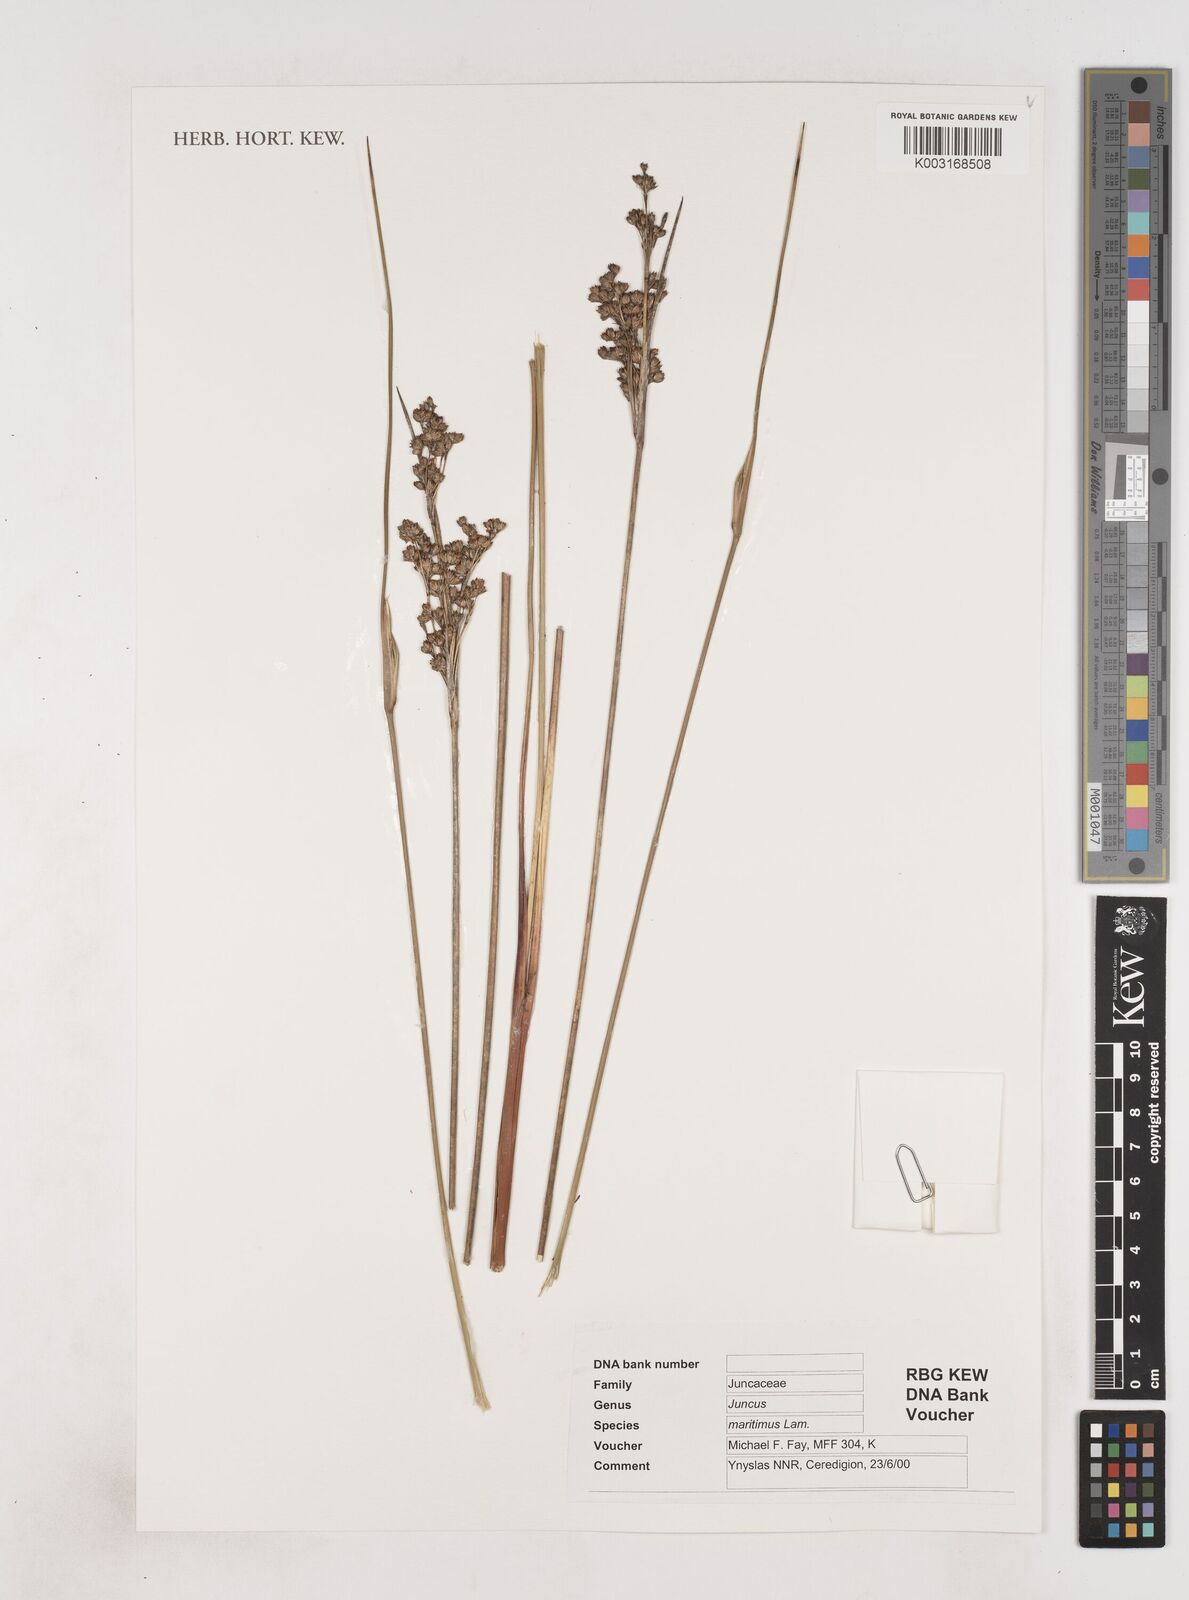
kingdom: Plantae
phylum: Tracheophyta
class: Liliopsida
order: Poales
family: Juncaceae
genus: Juncus
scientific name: Juncus maritimus
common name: Sea rush
